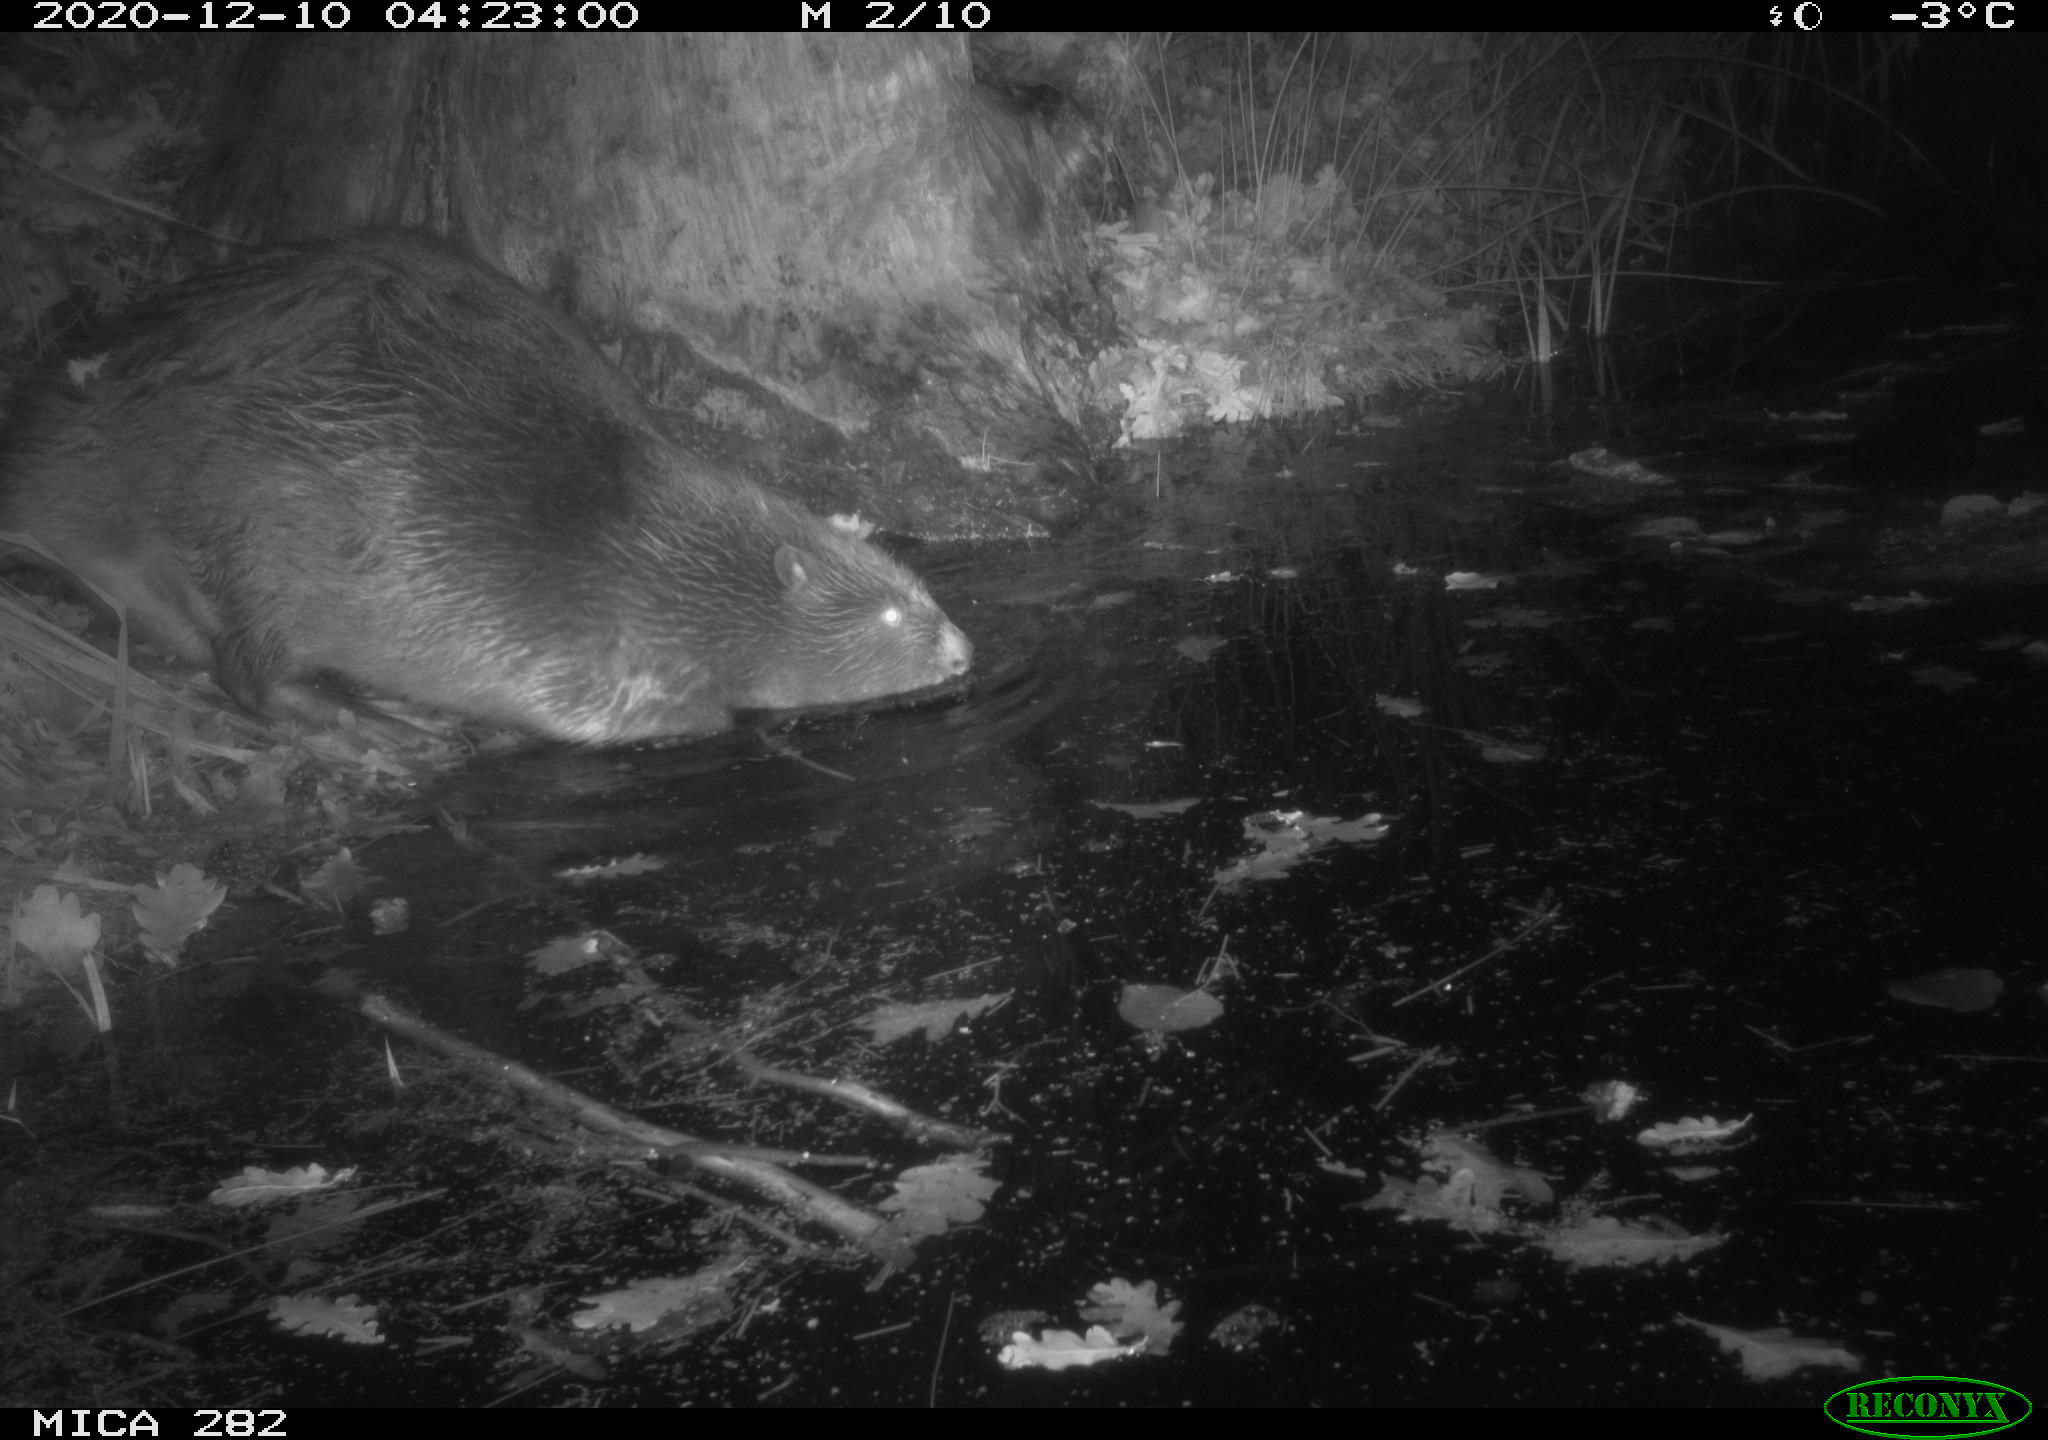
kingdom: Animalia
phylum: Chordata
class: Mammalia
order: Rodentia
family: Castoridae
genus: Castor
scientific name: Castor fiber
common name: Eurasian beaver
